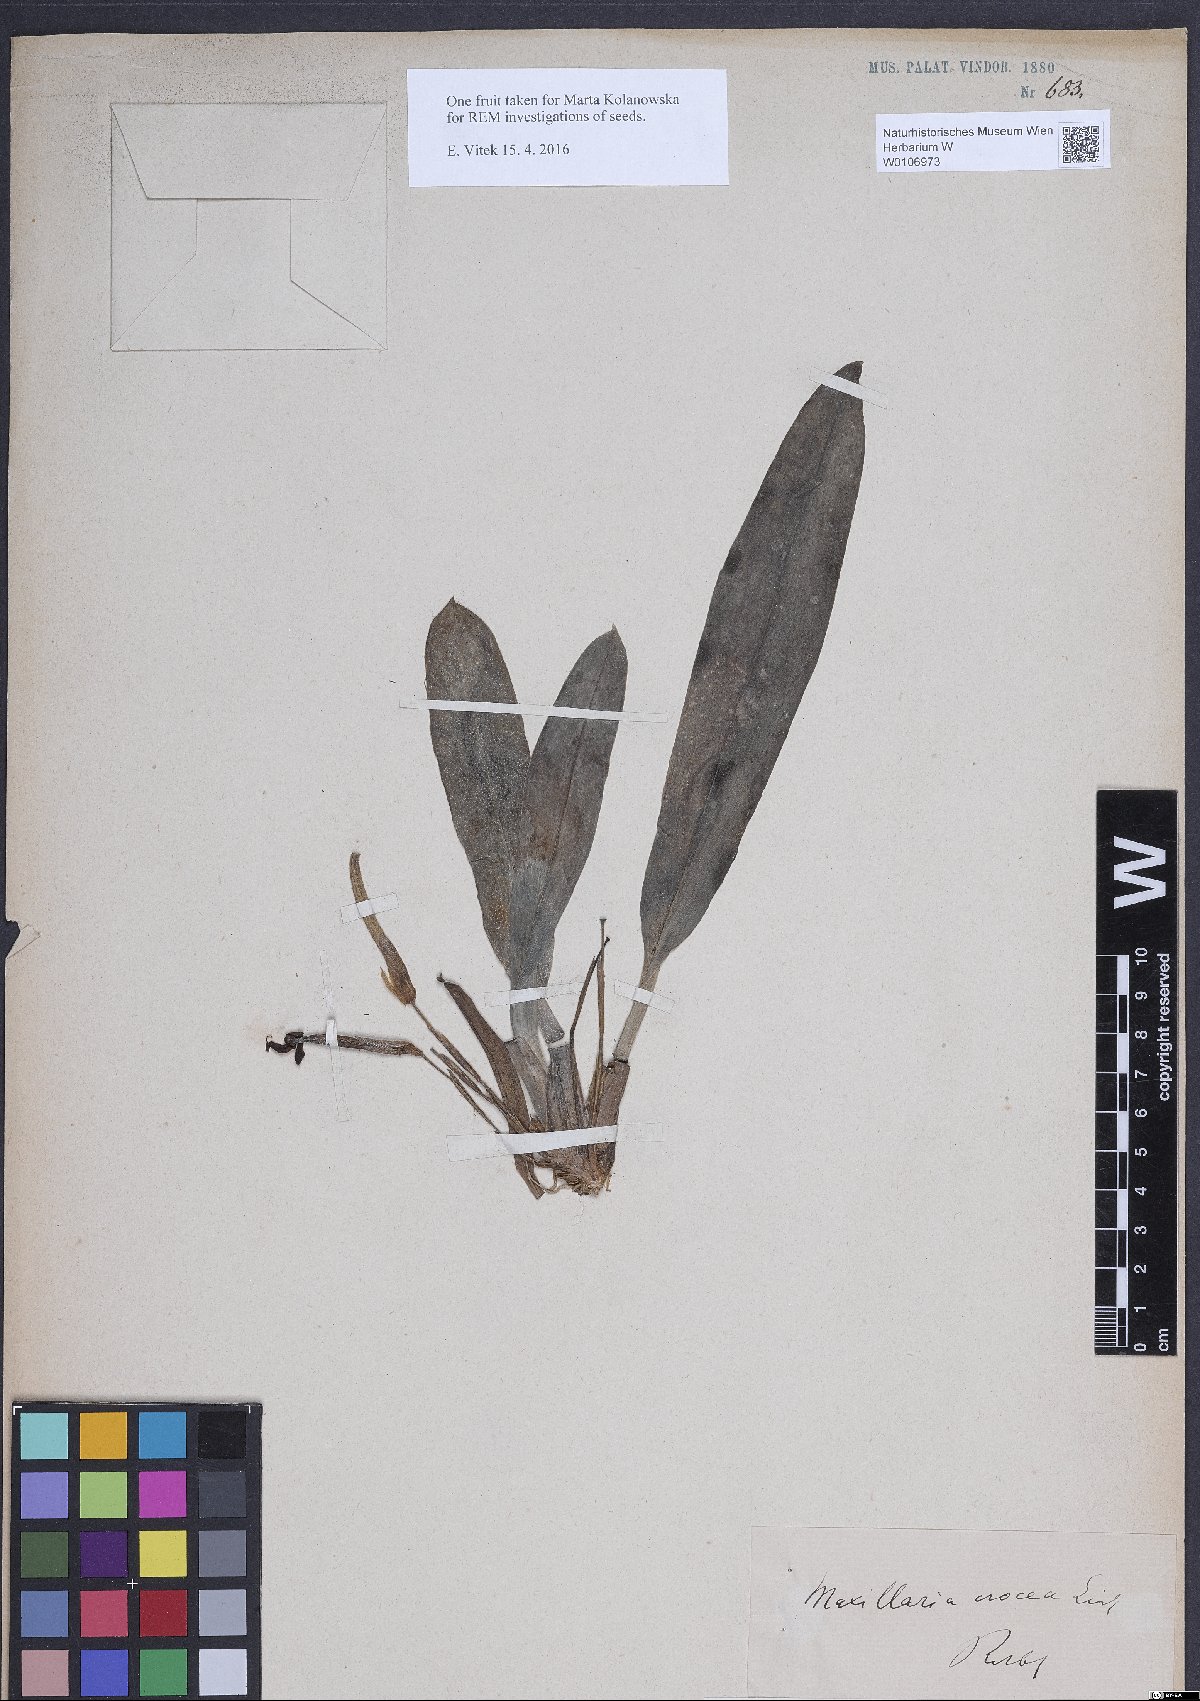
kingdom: Plantae
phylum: Tracheophyta
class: Liliopsida
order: Asparagales
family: Orchidaceae
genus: Maxillaria
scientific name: Maxillaria poeppigiana
